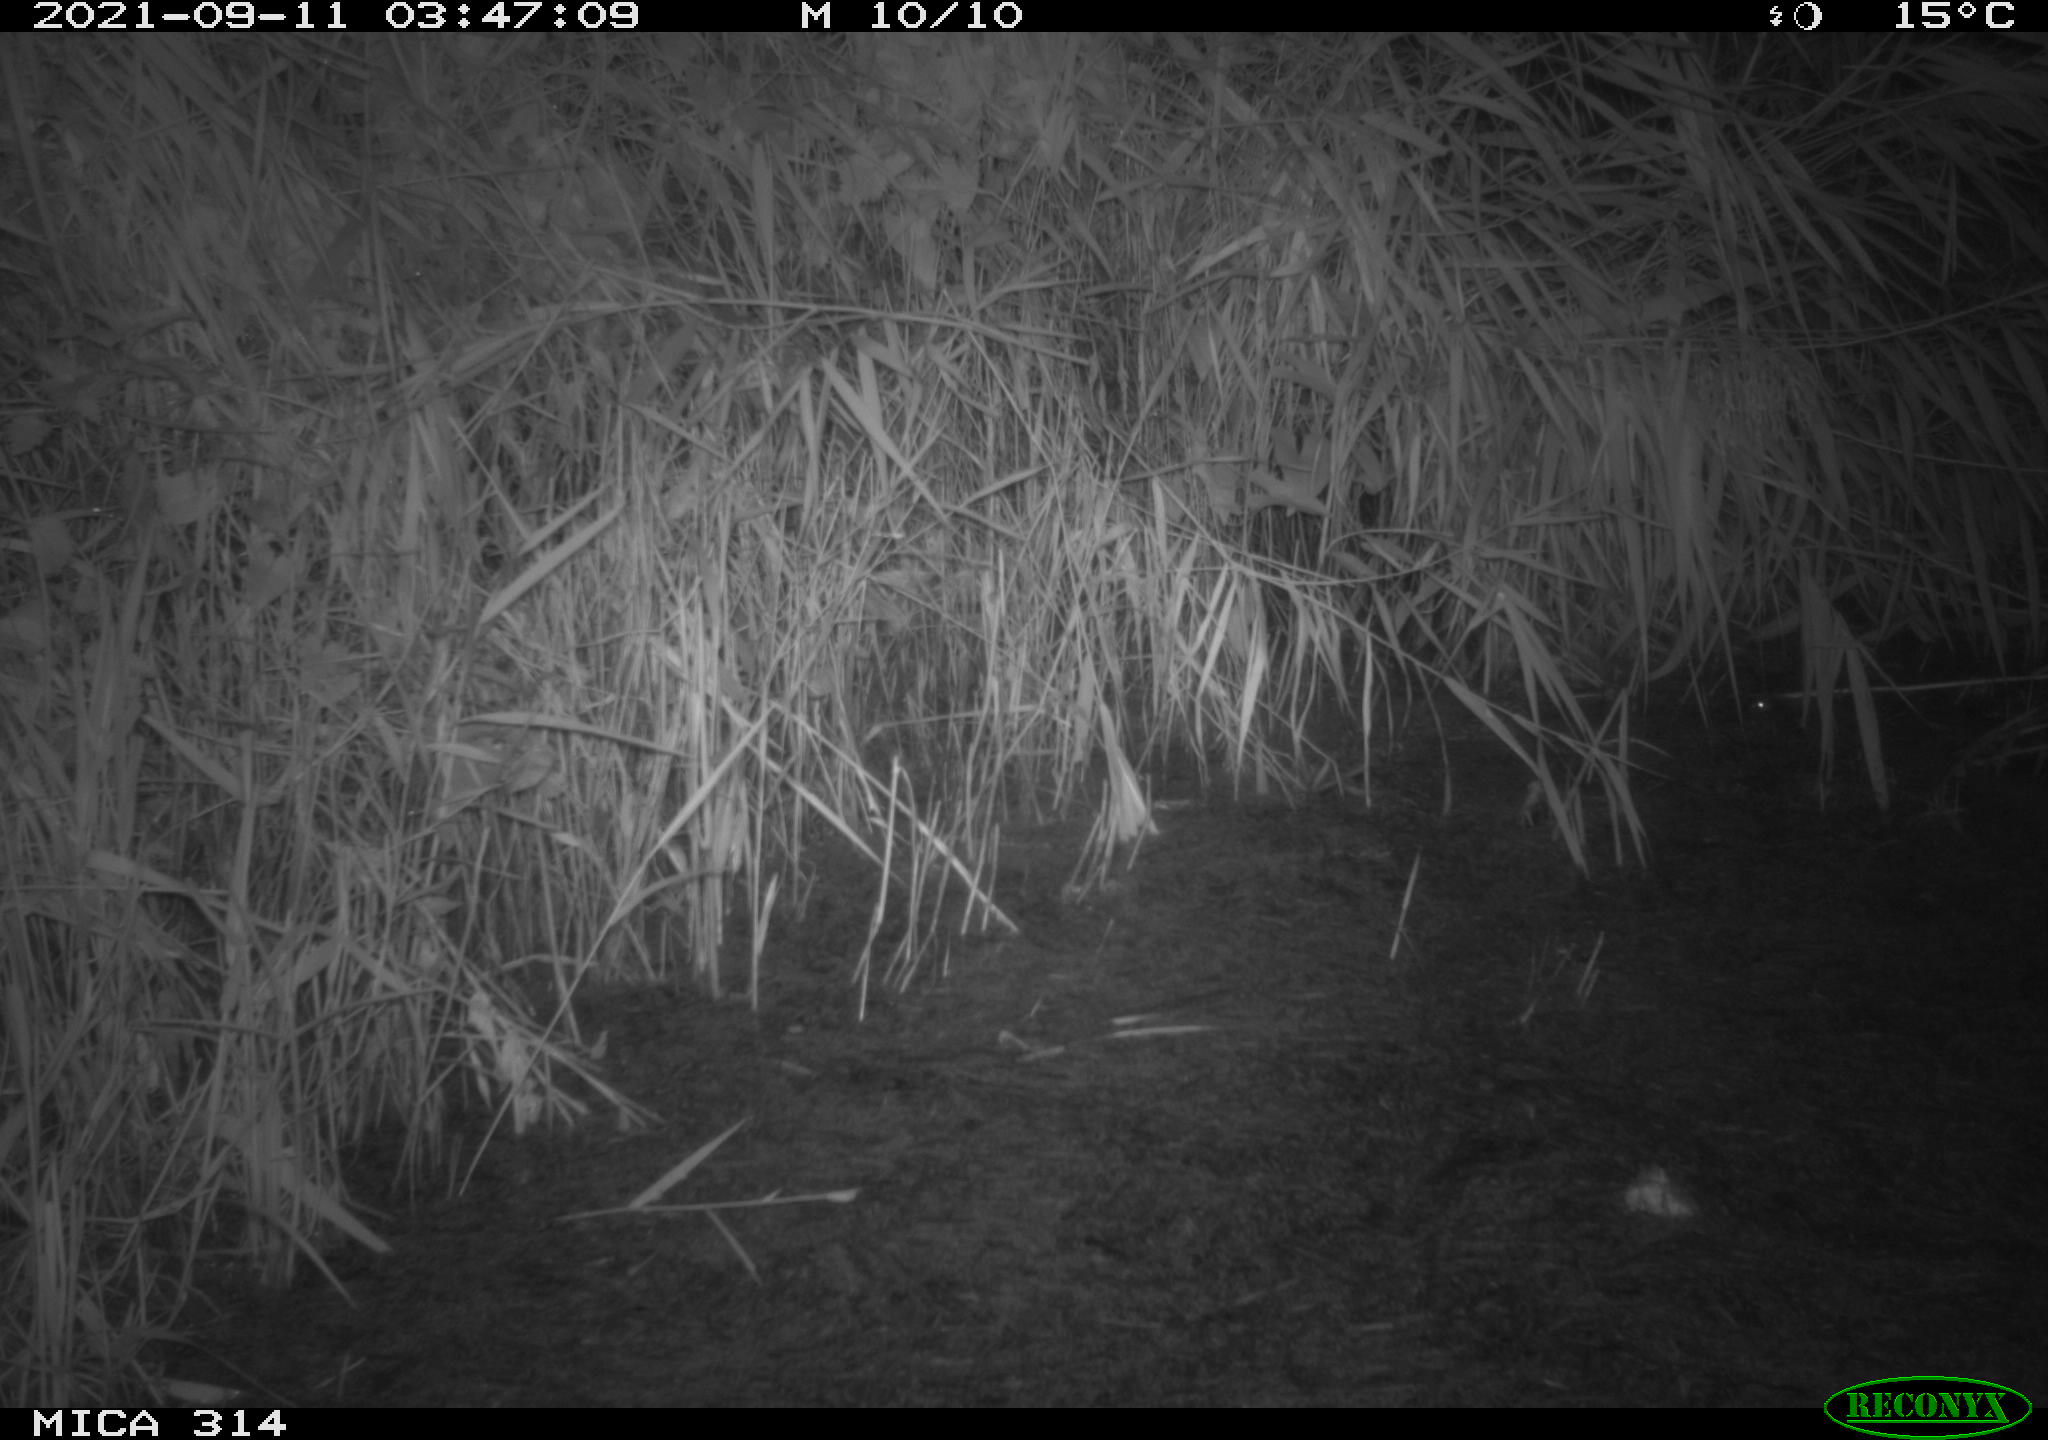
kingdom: Animalia
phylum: Chordata
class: Mammalia
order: Rodentia
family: Muridae
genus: Rattus
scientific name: Rattus norvegicus
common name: Brown rat
